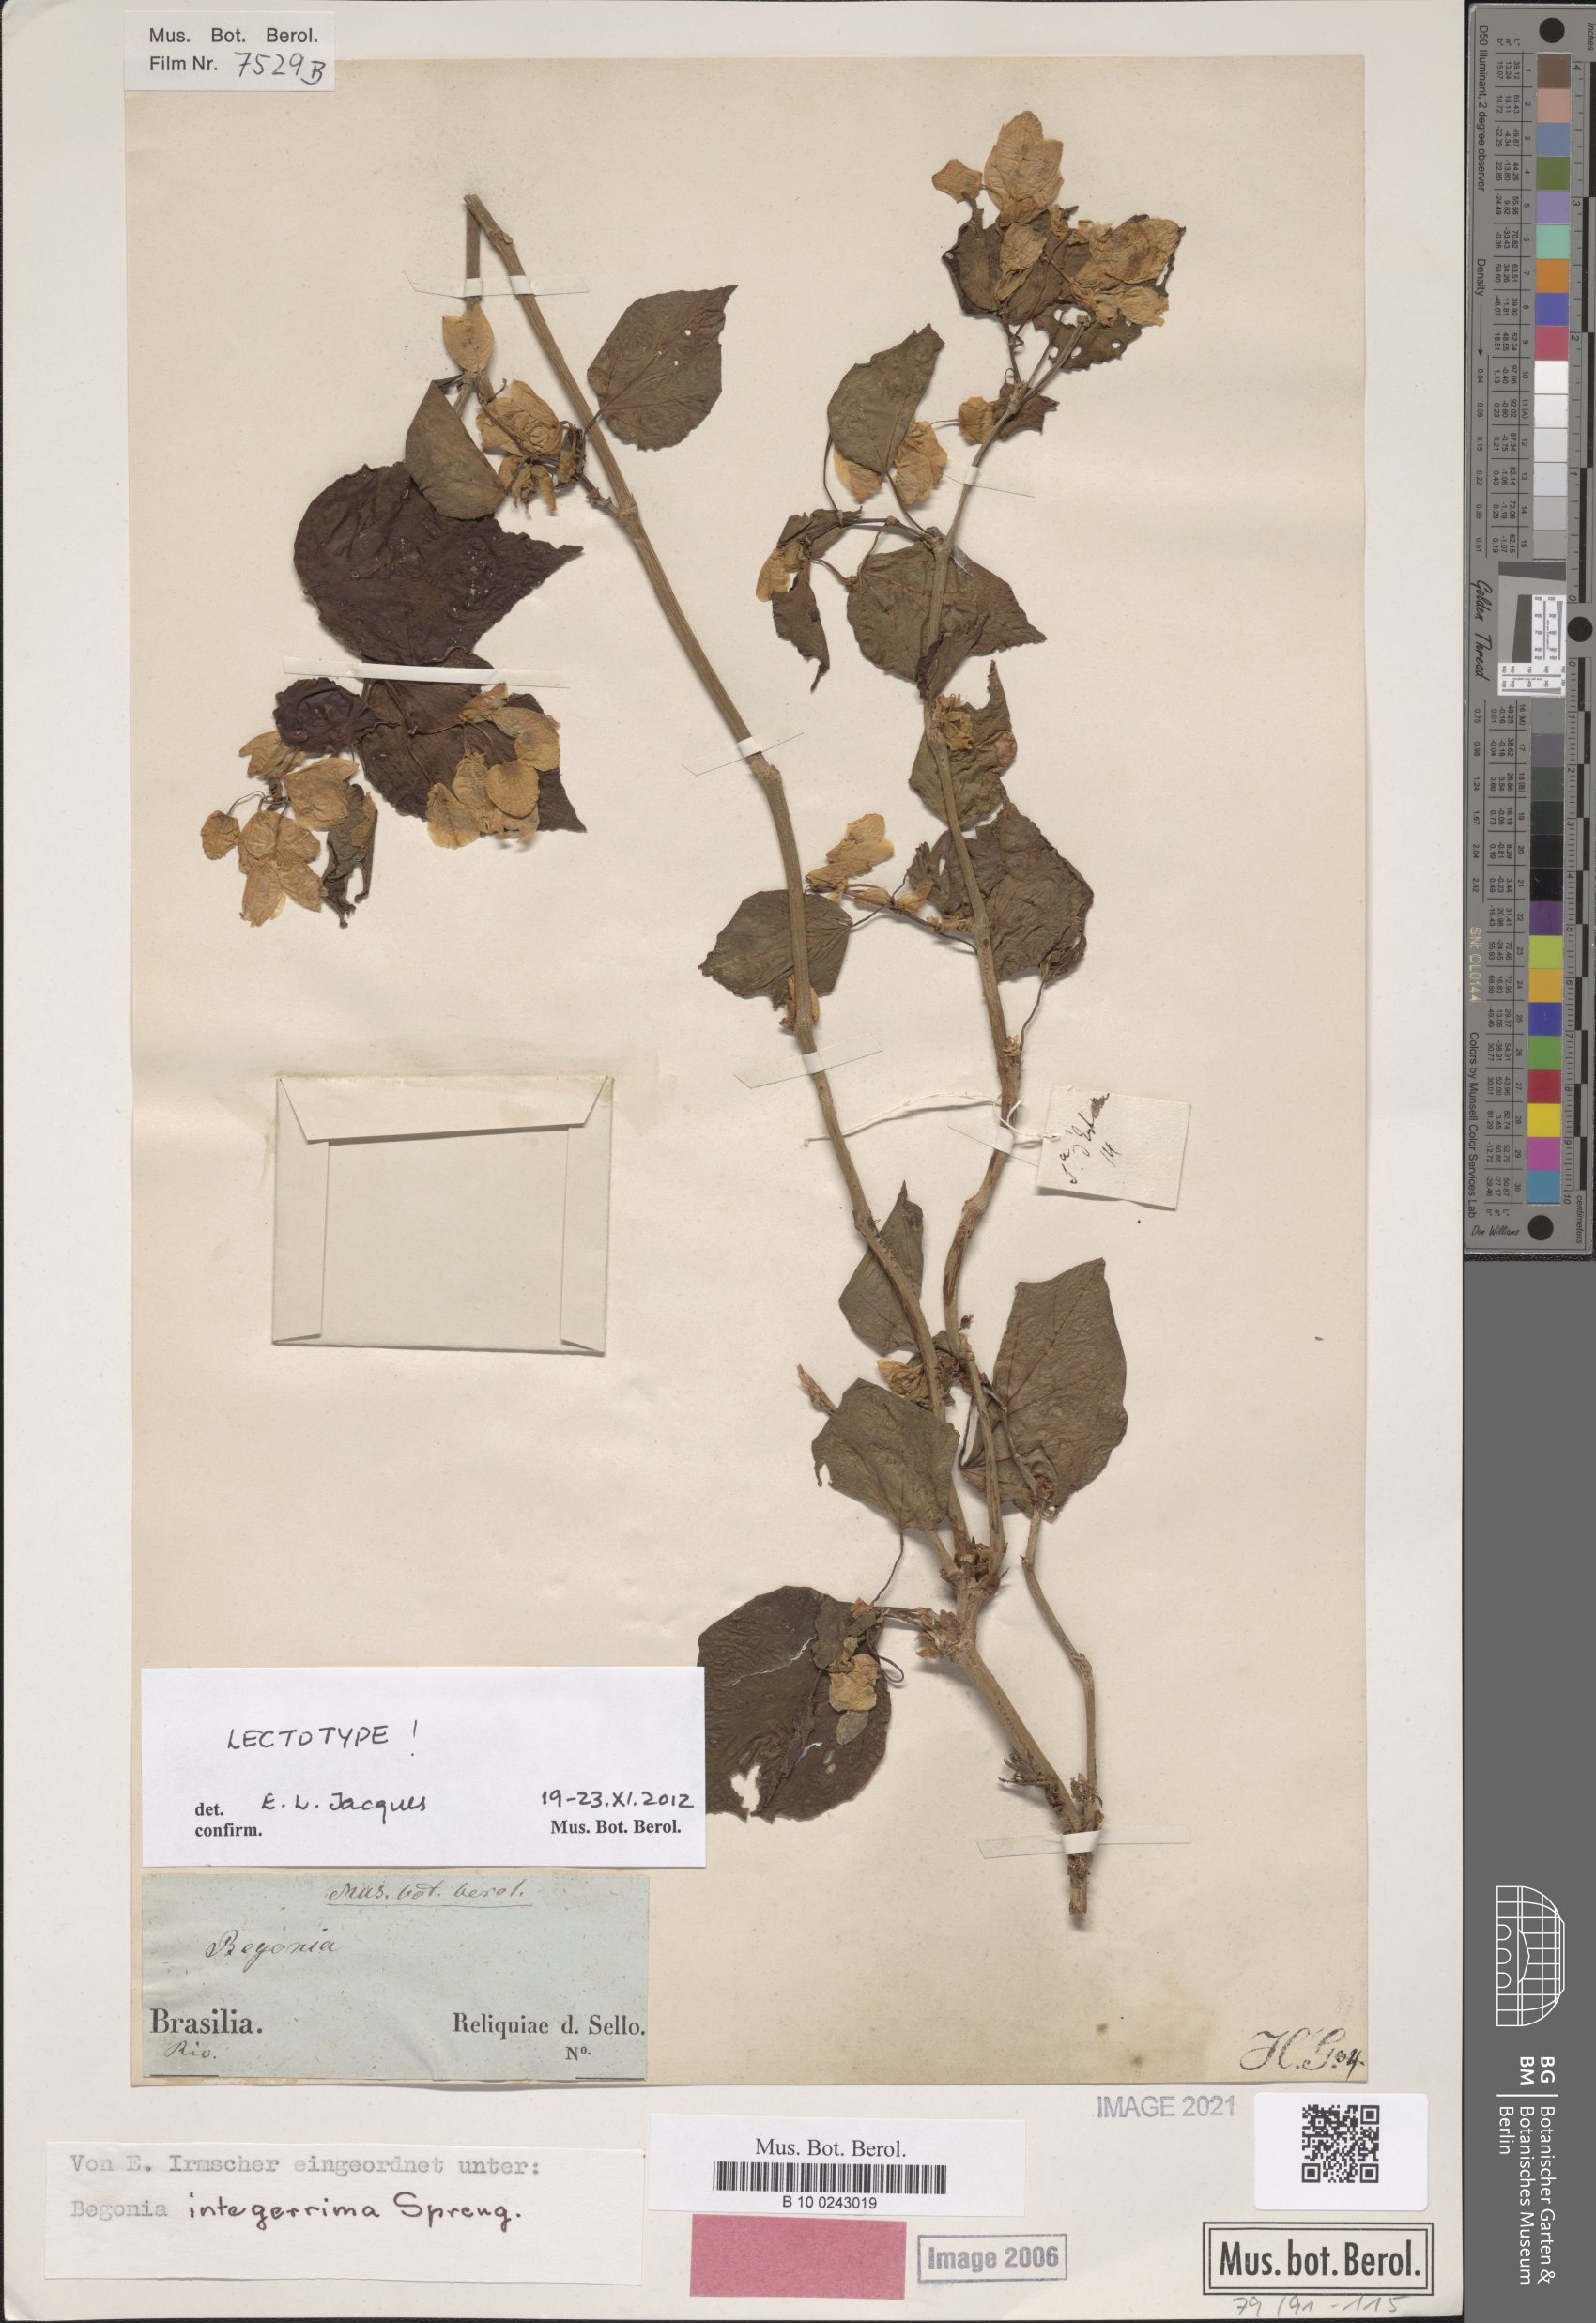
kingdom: Plantae
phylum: Tracheophyta
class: Magnoliopsida
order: Cucurbitales
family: Begoniaceae
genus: Begonia
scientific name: Begonia integerrima
